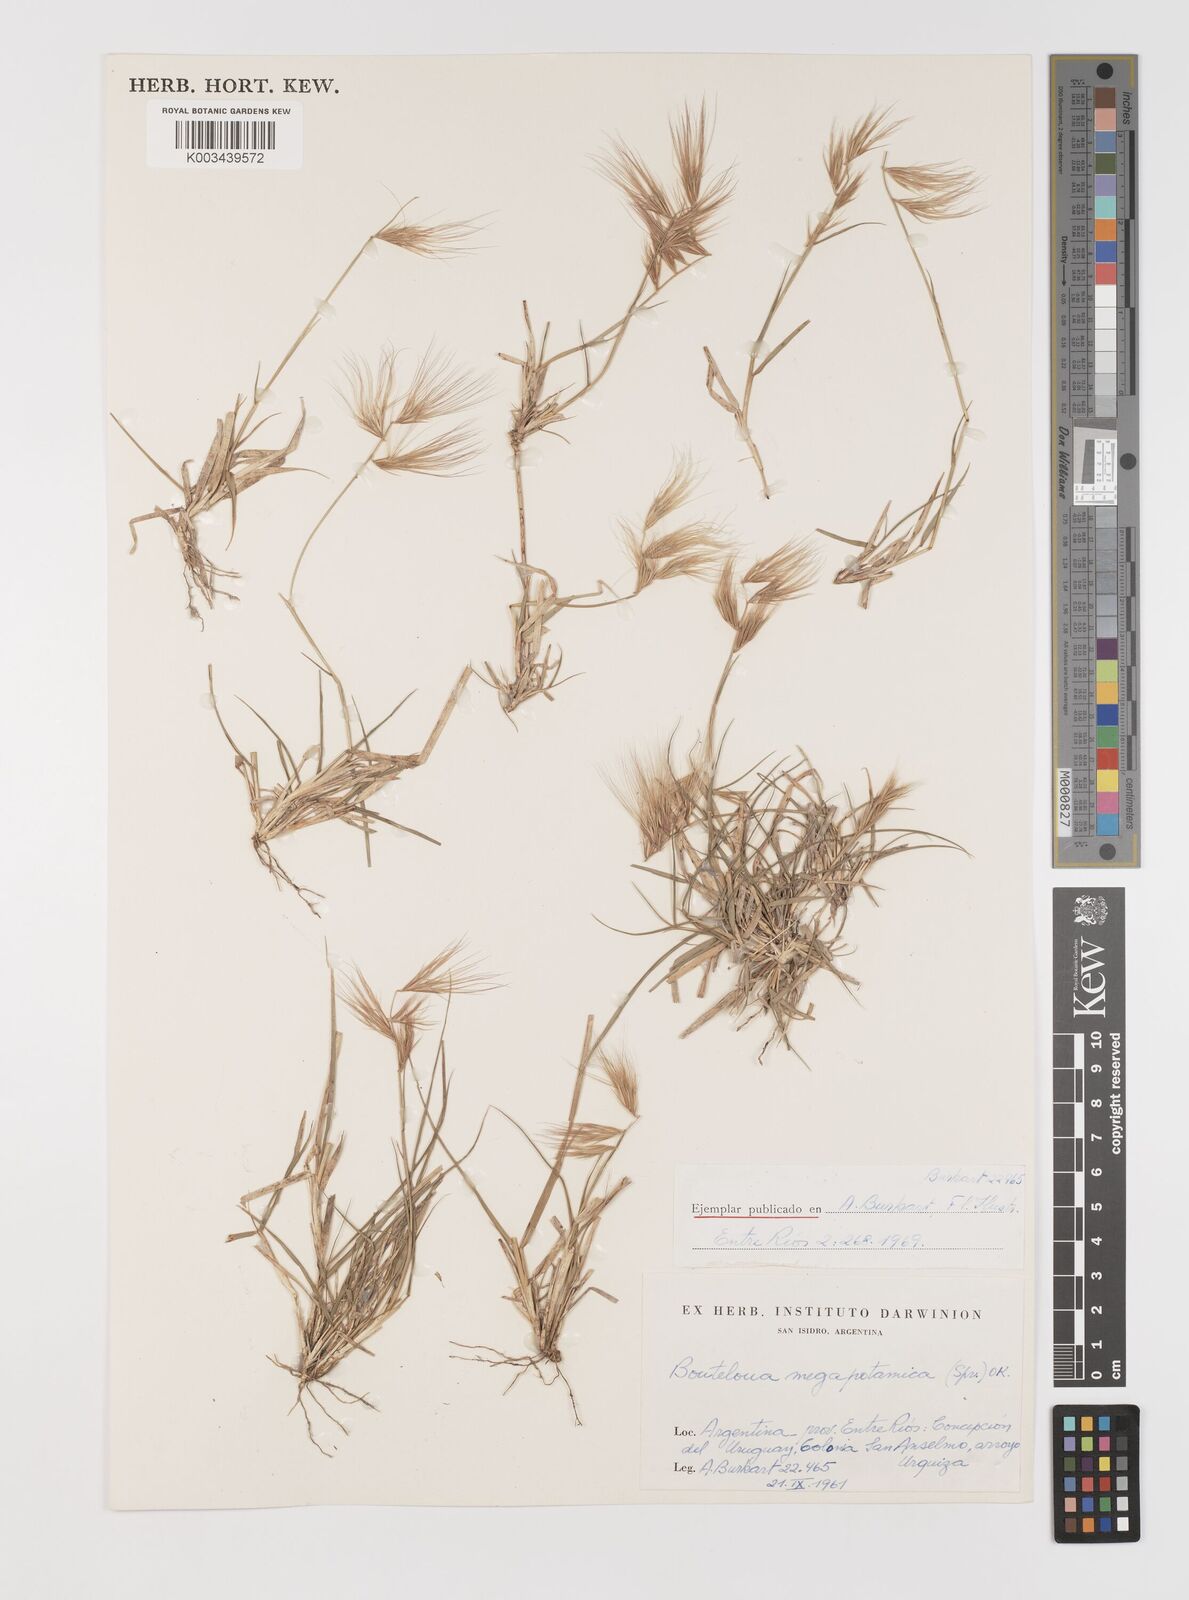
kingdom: Plantae
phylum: Tracheophyta
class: Liliopsida
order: Poales
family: Poaceae
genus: Bouteloua
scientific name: Bouteloua megapotamica
